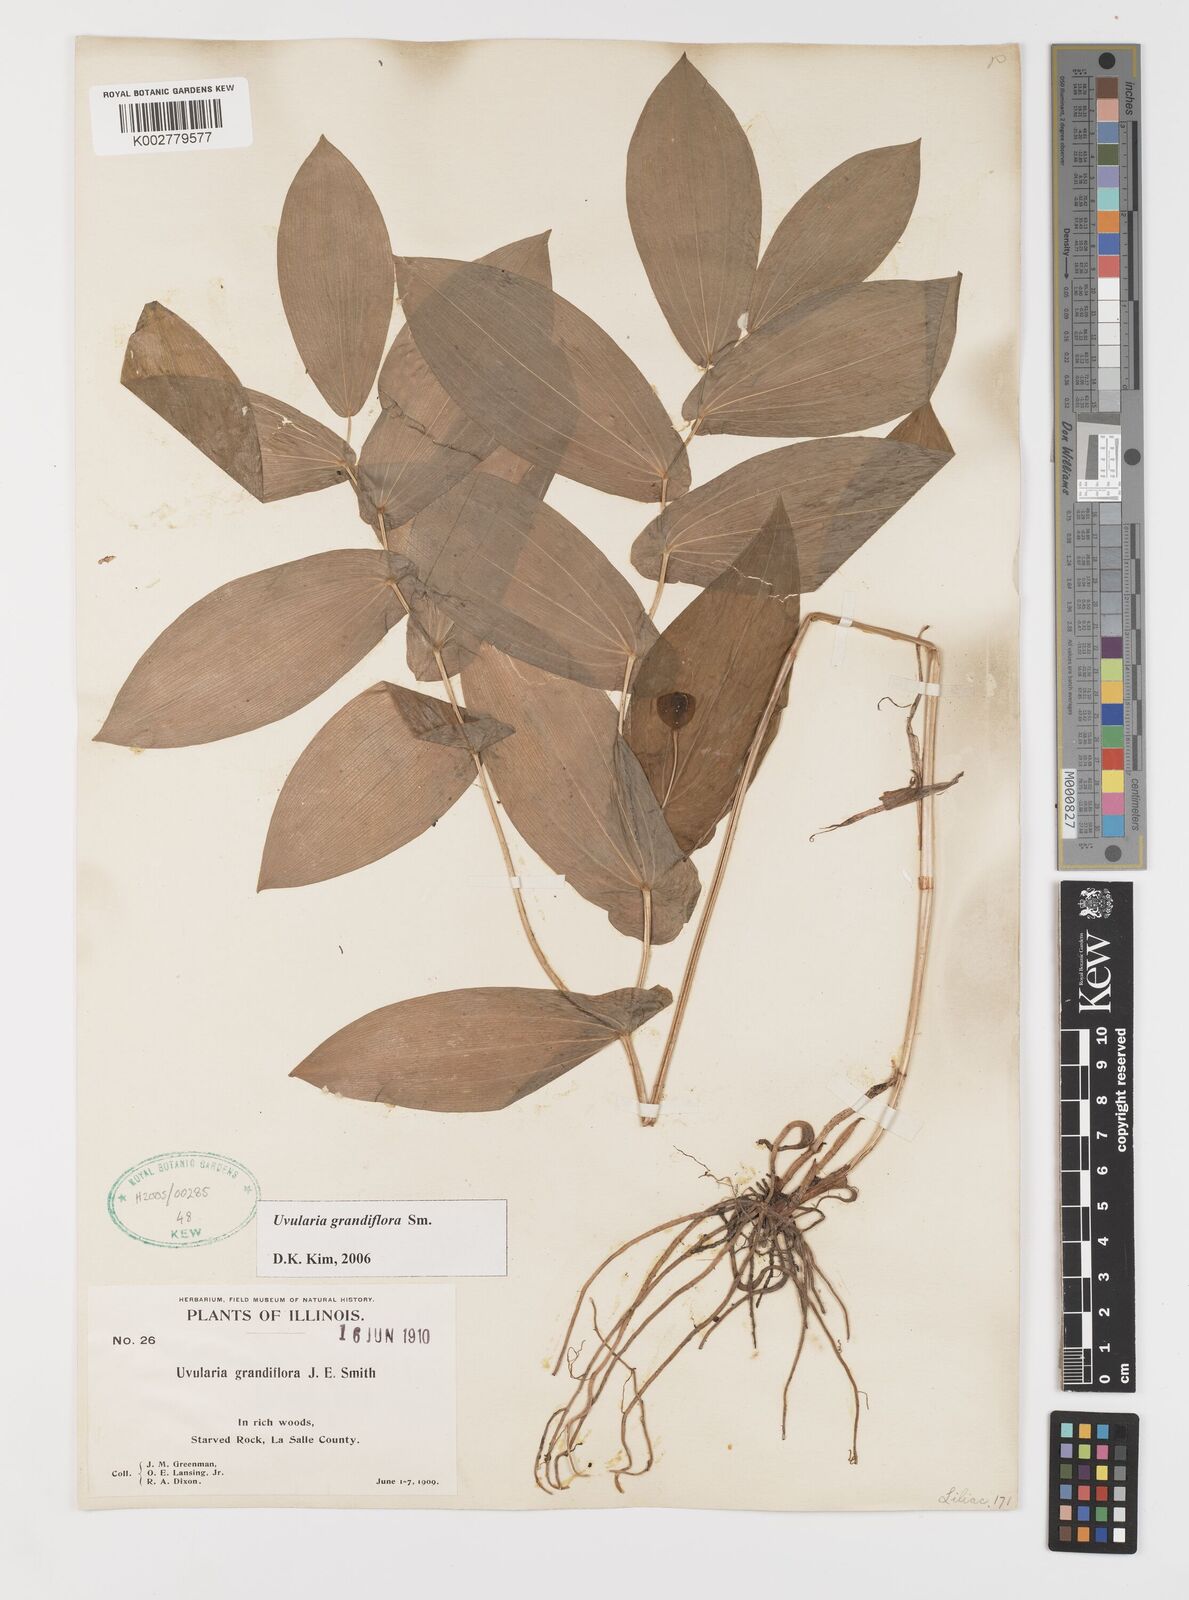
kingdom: Plantae
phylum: Tracheophyta
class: Liliopsida
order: Liliales
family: Colchicaceae
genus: Uvularia
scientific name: Uvularia grandiflora
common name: Bellwort
